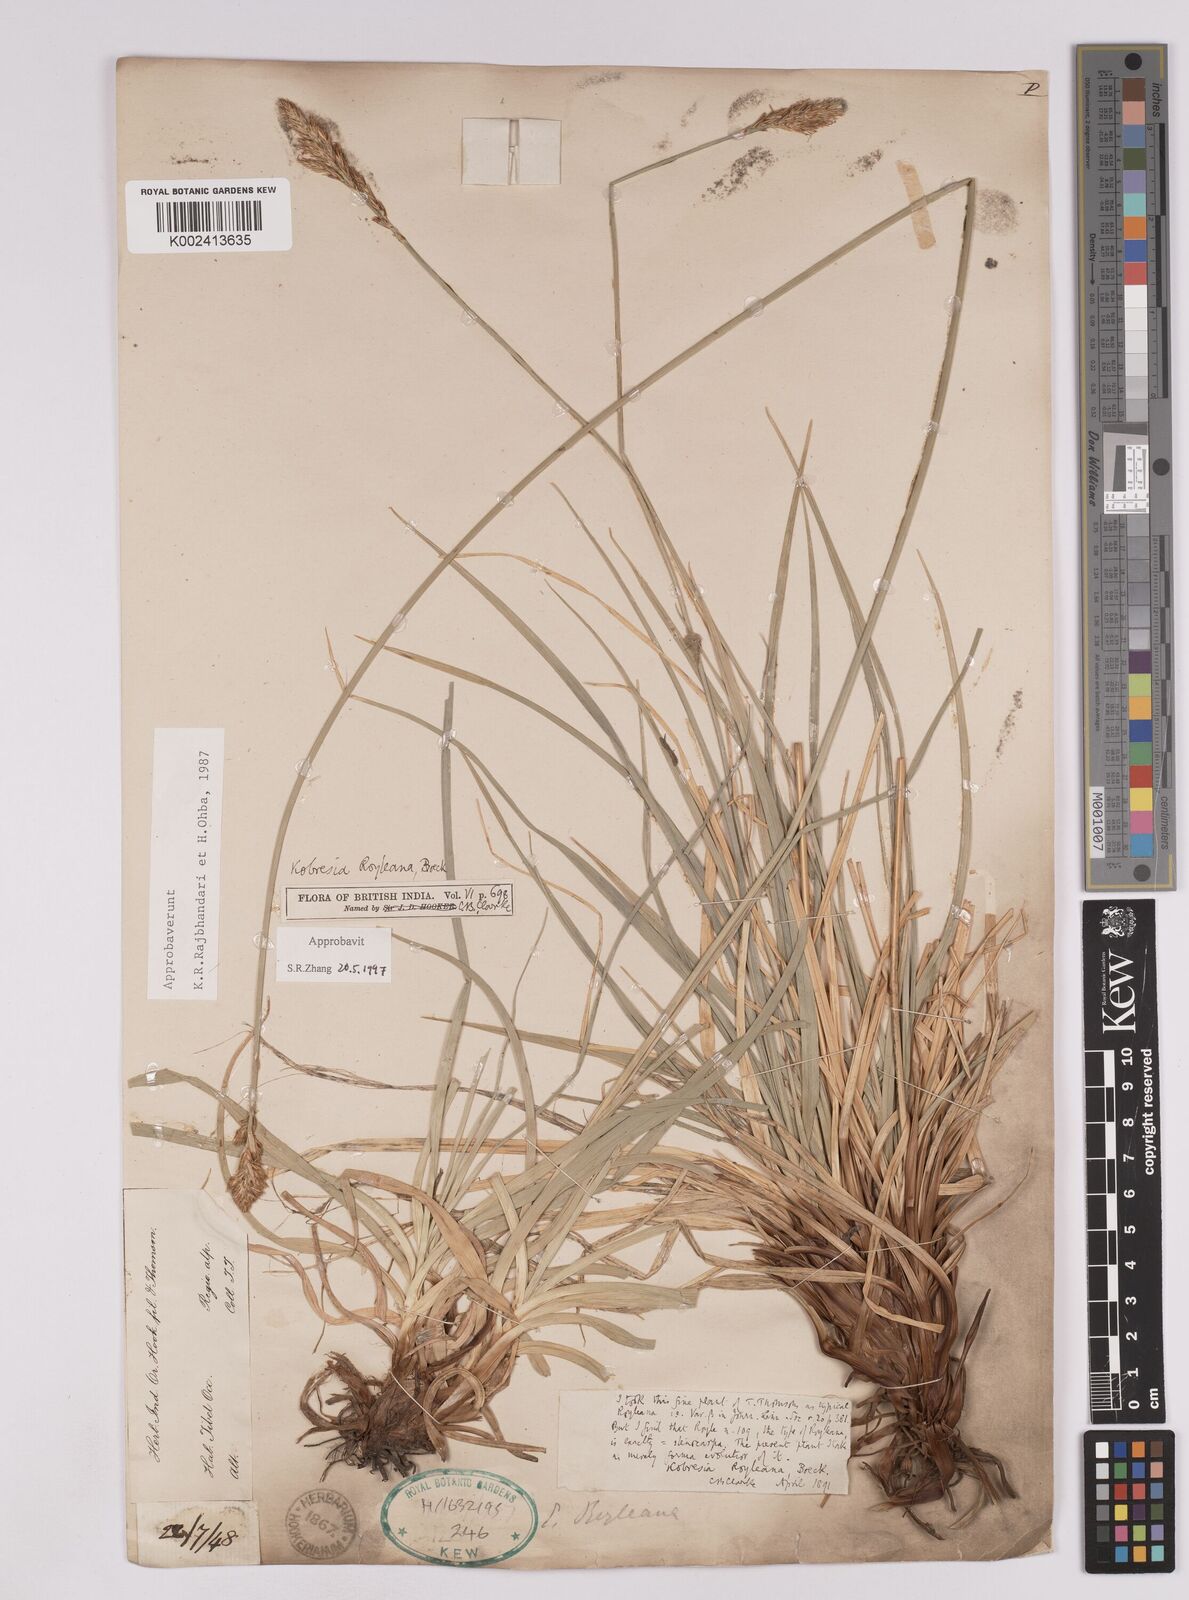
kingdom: Plantae
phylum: Tracheophyta
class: Liliopsida
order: Poales
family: Cyperaceae
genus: Carex
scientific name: Carex kokanica
